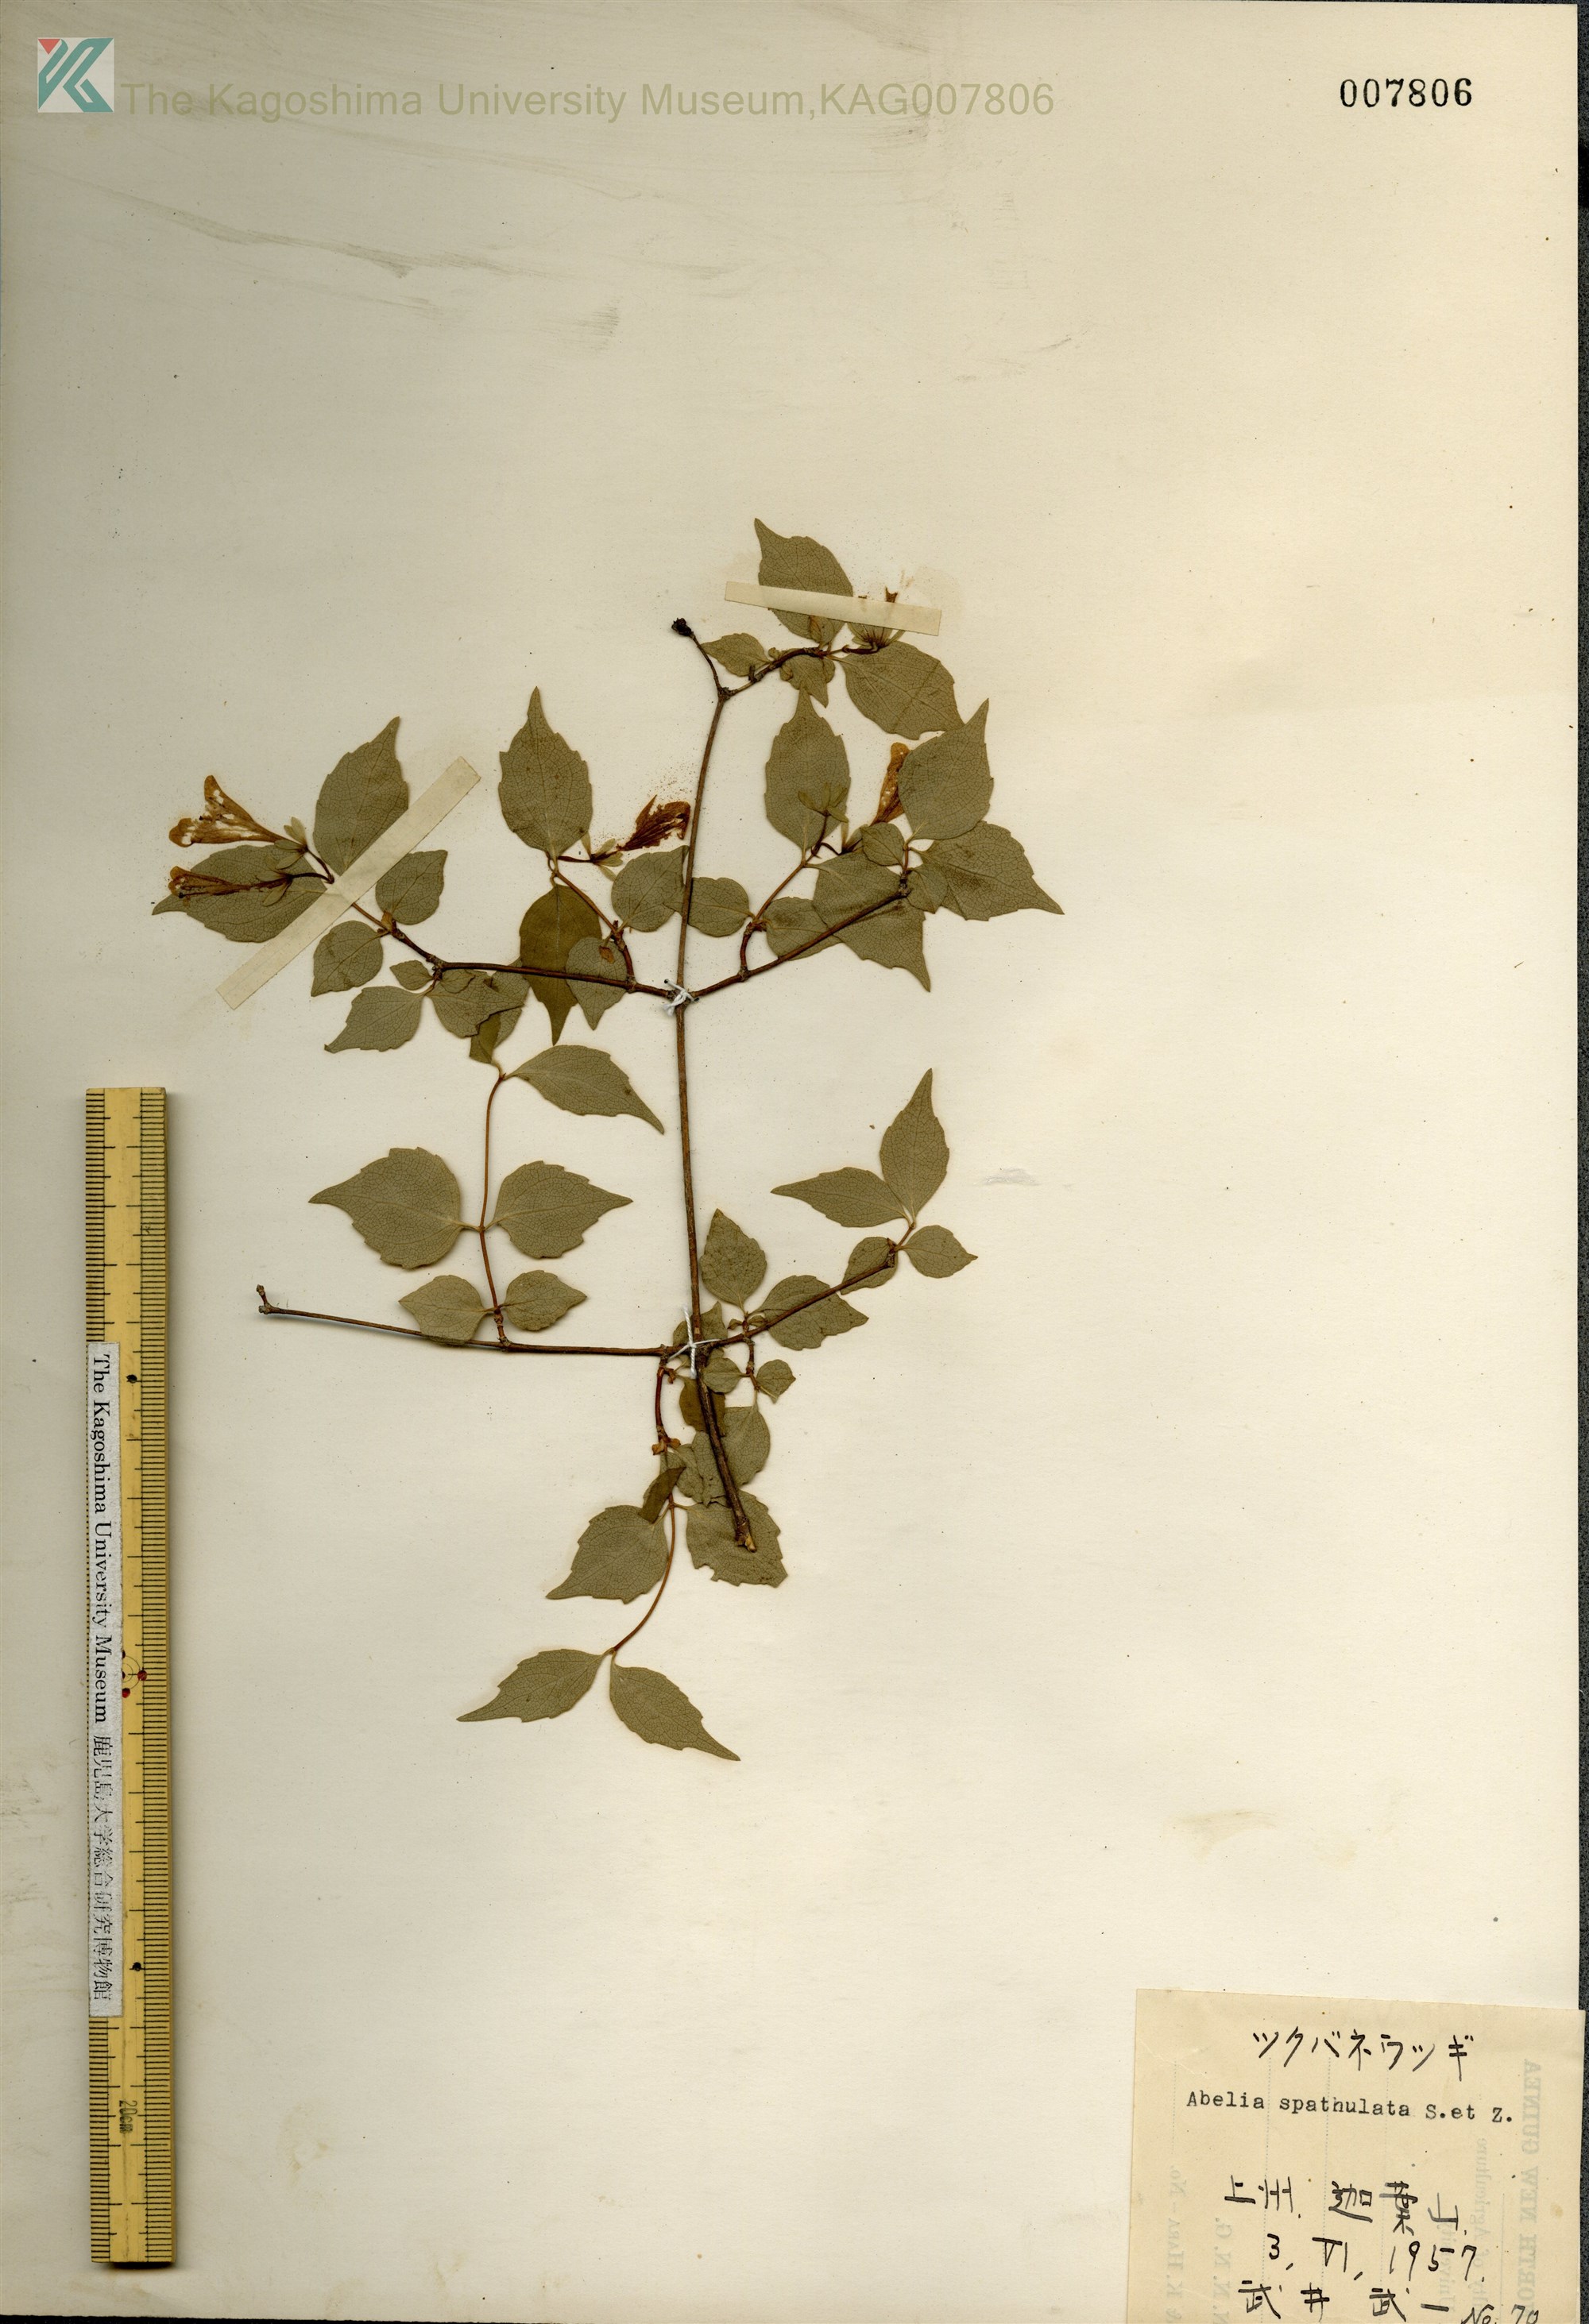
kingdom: Plantae
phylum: Tracheophyta
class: Magnoliopsida
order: Dipsacales
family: Caprifoliaceae
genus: Diabelia
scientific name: Diabelia spathulata
